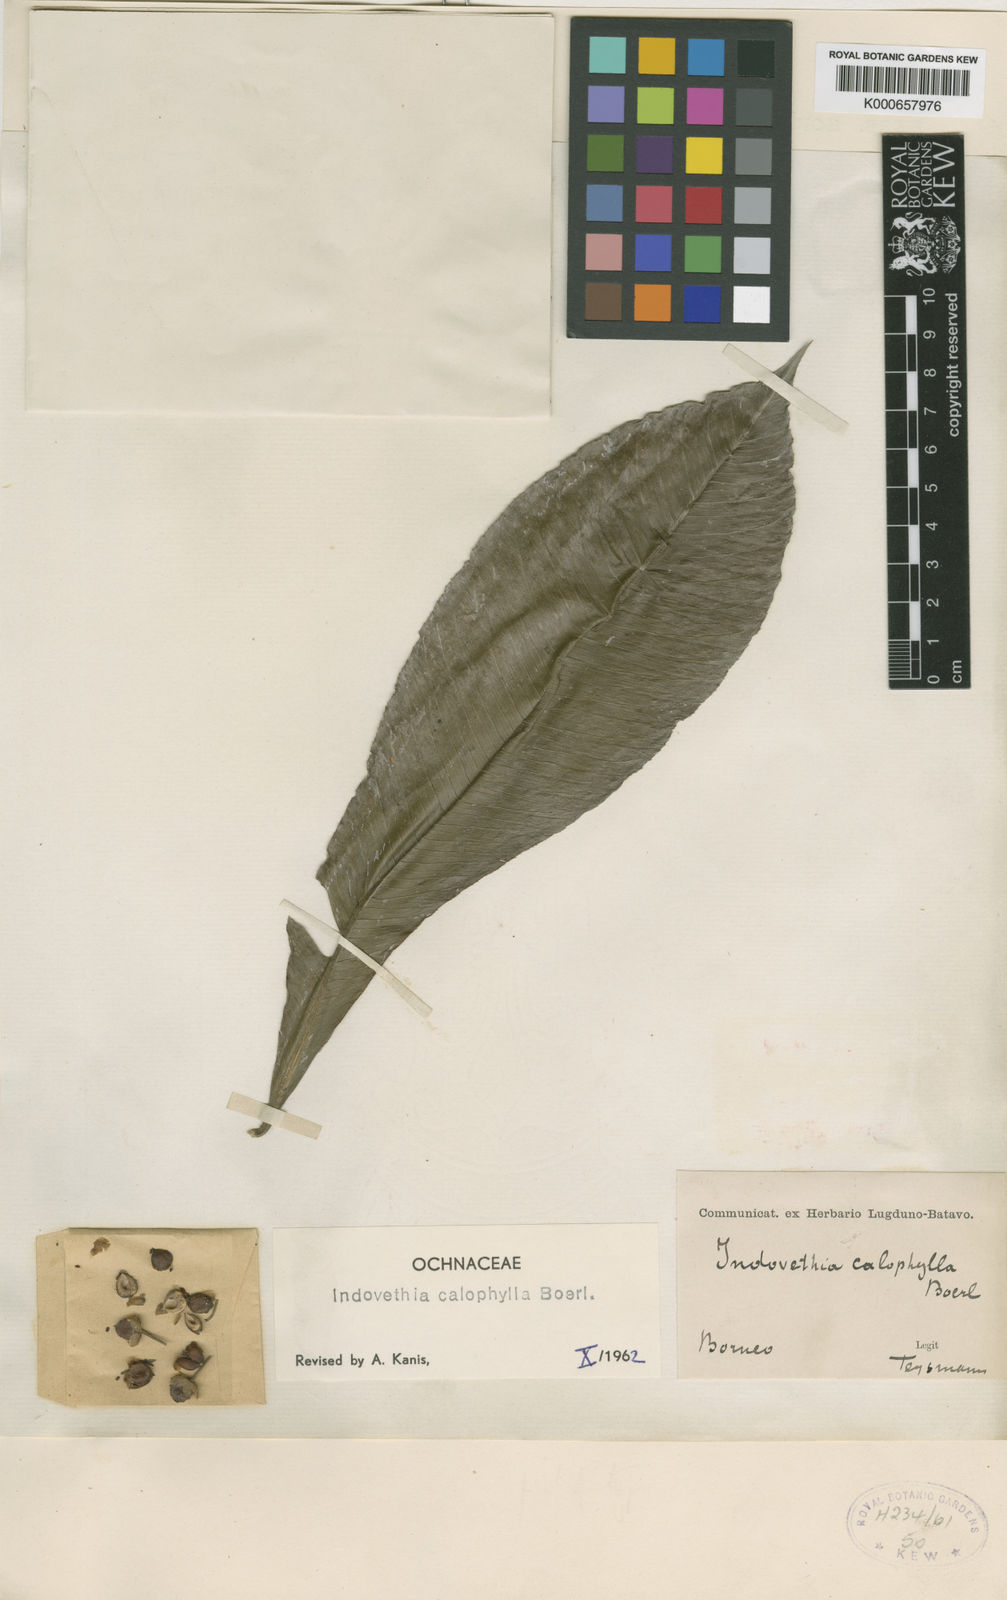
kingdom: Plantae
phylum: Tracheophyta
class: Magnoliopsida
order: Malpighiales
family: Ochnaceae
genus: Indovethia
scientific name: Indovethia calophylla
